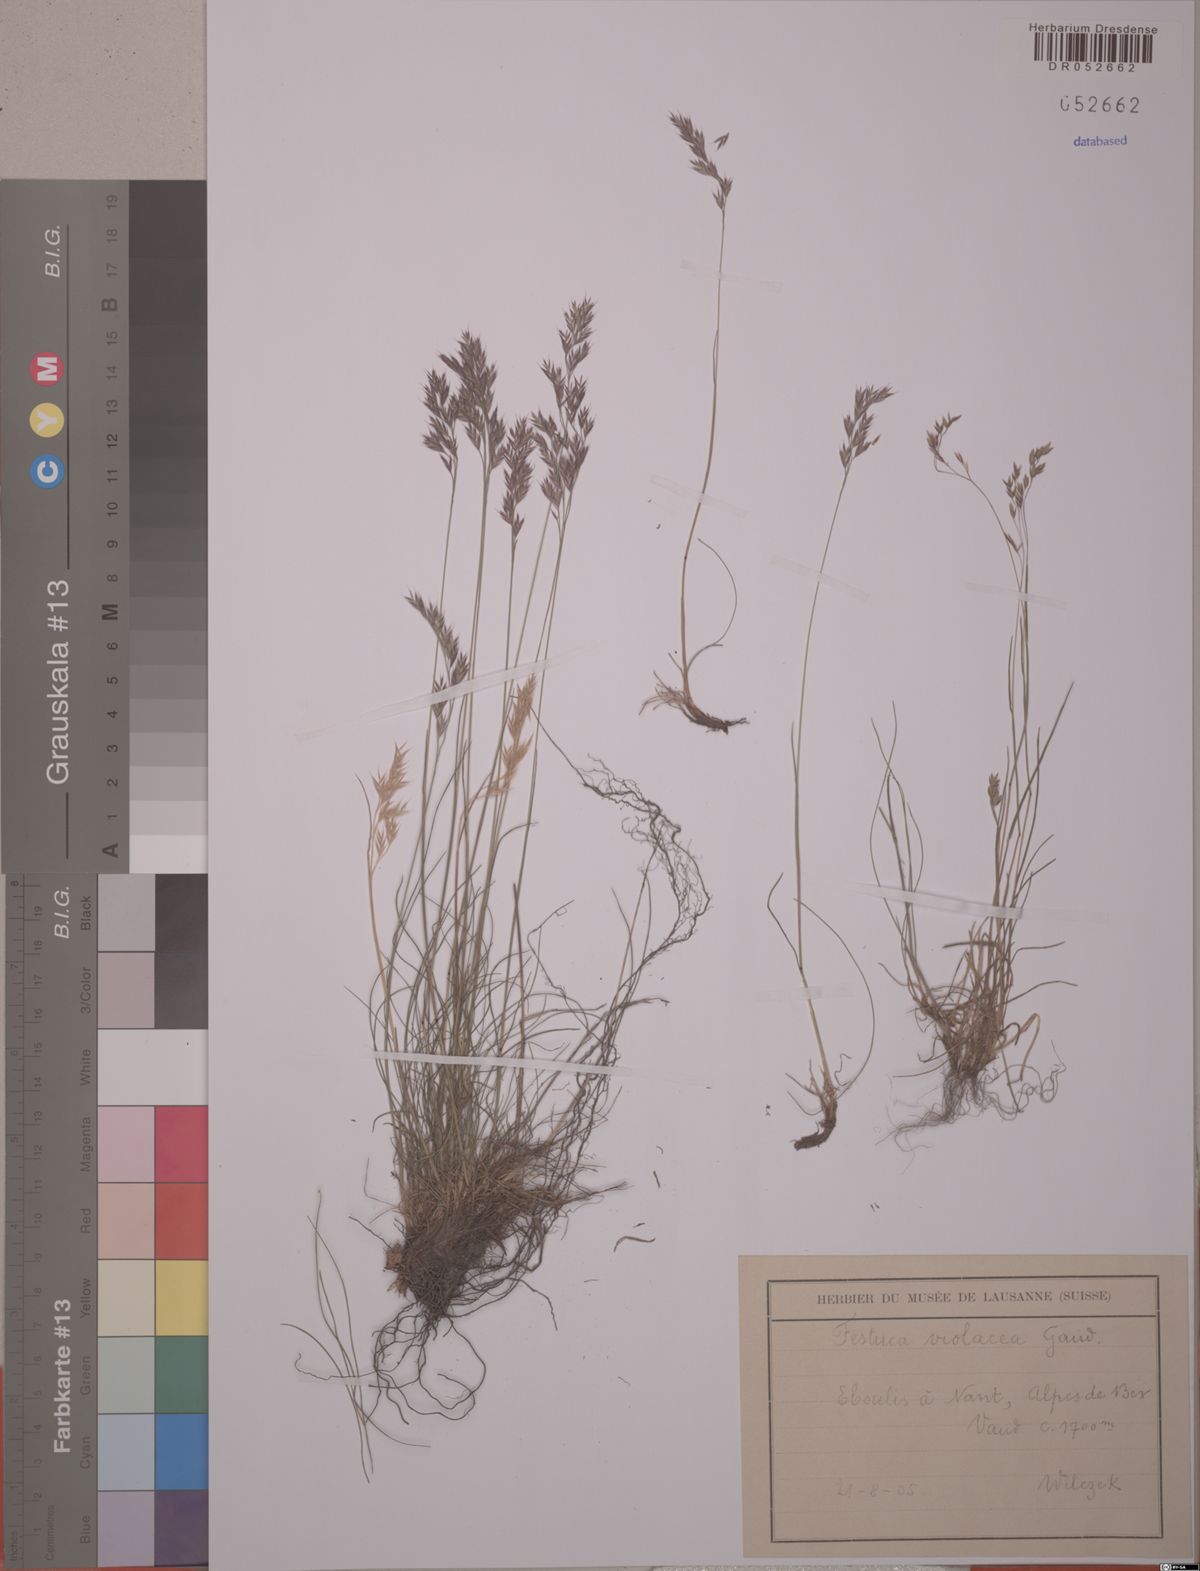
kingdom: Plantae
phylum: Tracheophyta
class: Liliopsida
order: Poales
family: Poaceae
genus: Festuca
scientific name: Festuca violacea
